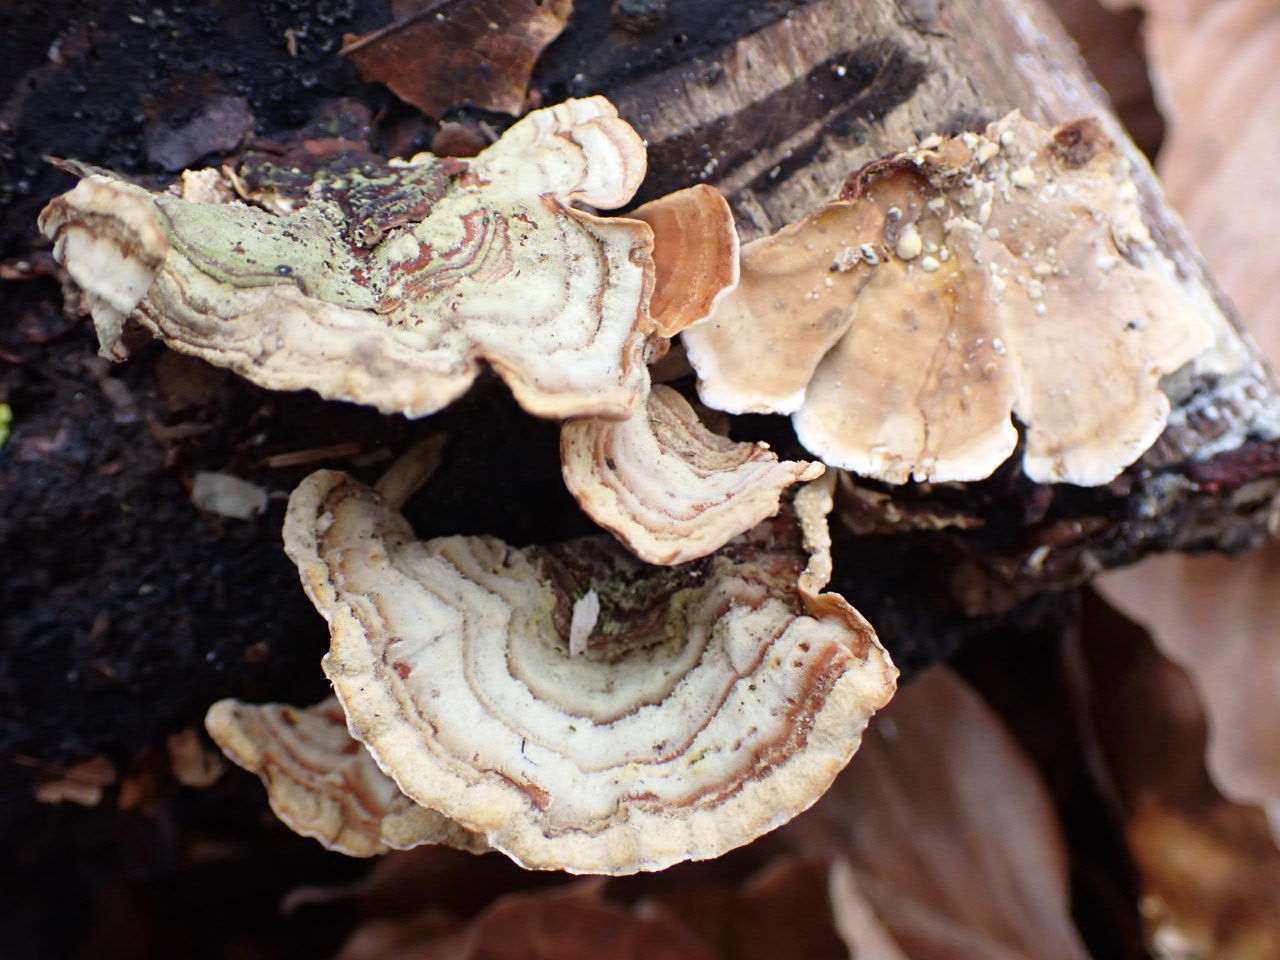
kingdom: Fungi
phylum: Basidiomycota
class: Agaricomycetes
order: Russulales
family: Stereaceae
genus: Stereum
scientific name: Stereum subtomentosum
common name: smuk lædersvamp
